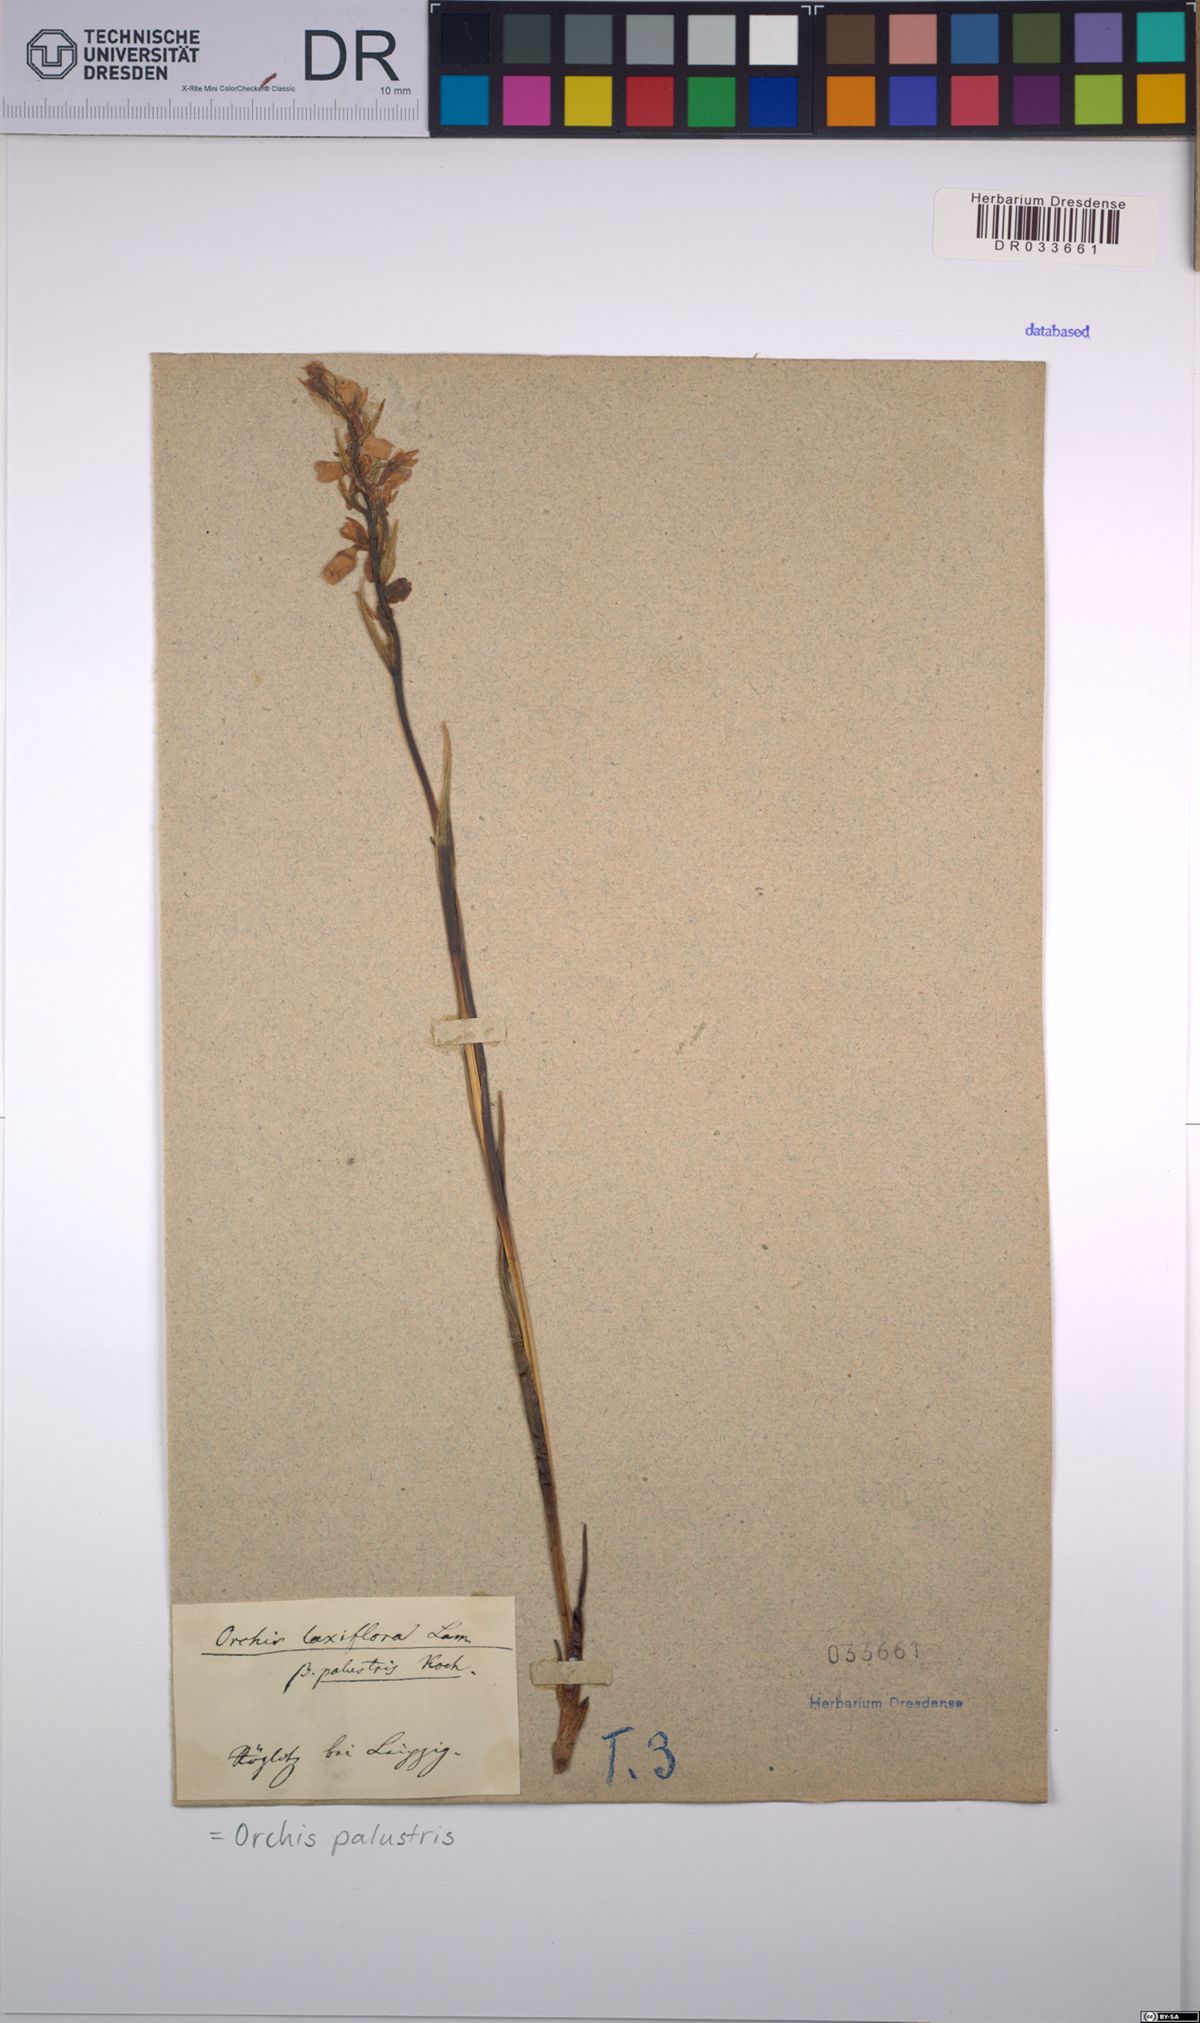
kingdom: Plantae
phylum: Tracheophyta
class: Liliopsida
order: Asparagales
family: Orchidaceae
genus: Anacamptis
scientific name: Anacamptis palustris
